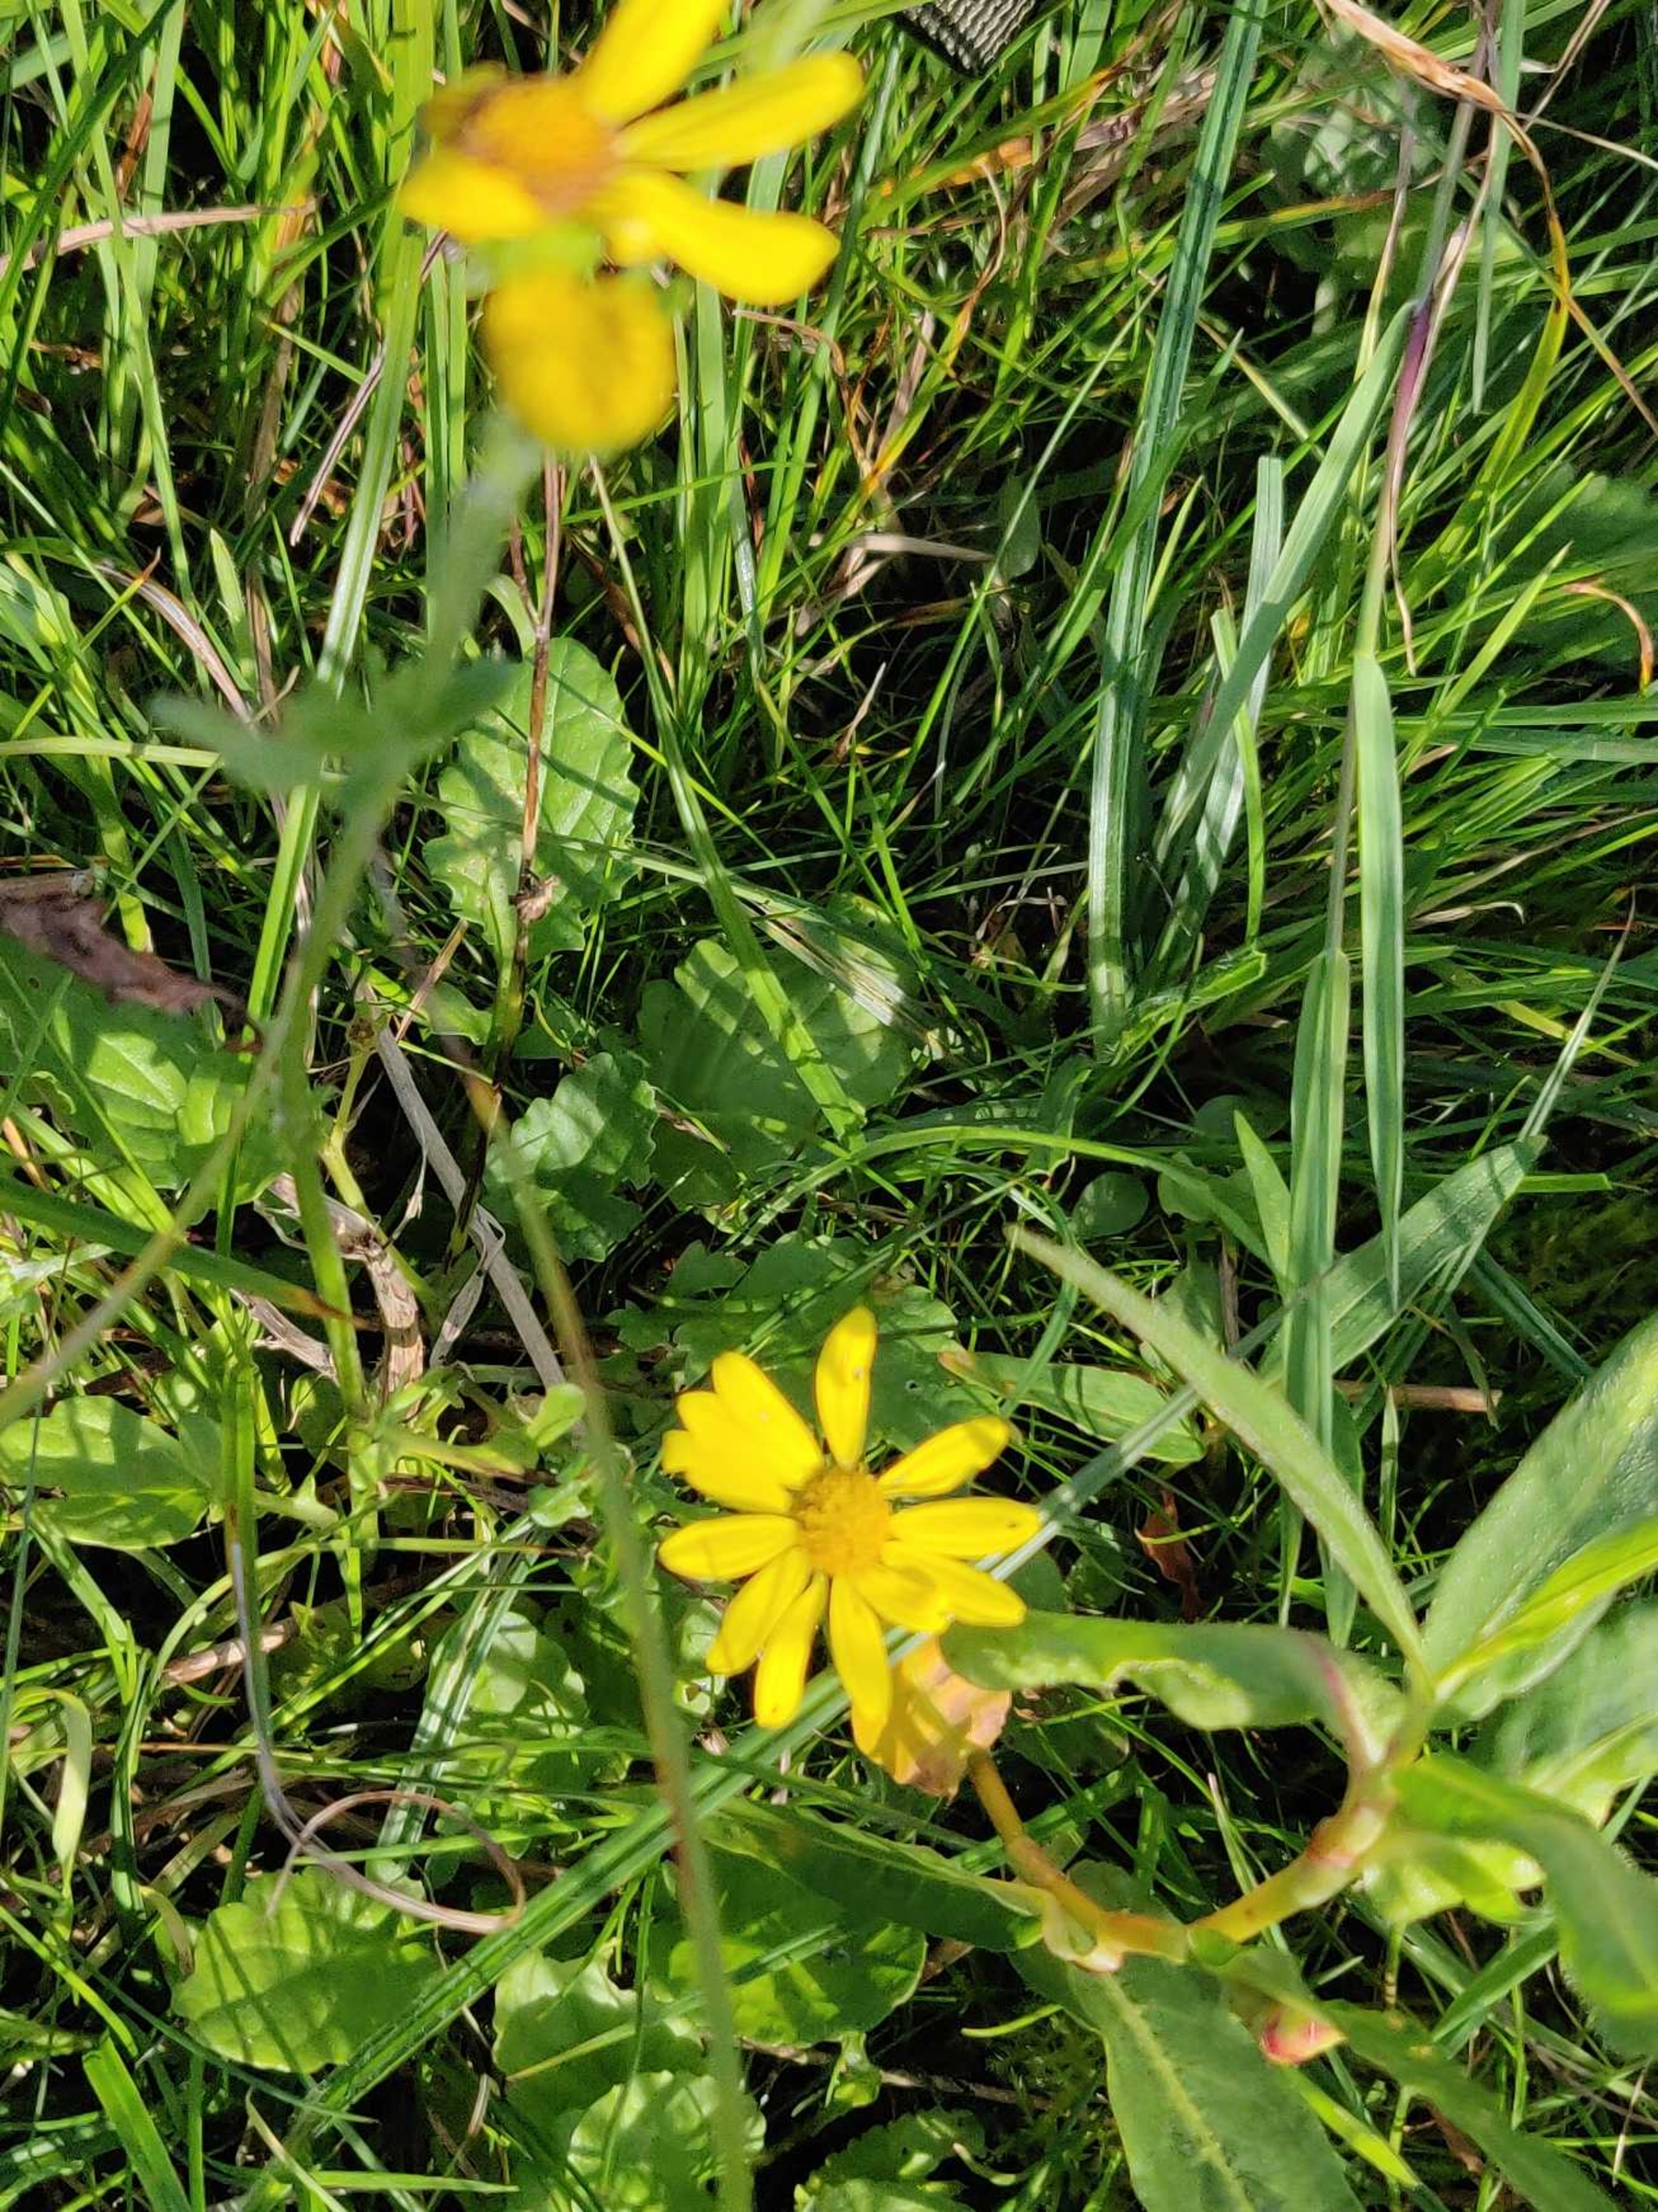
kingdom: Plantae
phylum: Tracheophyta
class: Magnoliopsida
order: Asterales
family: Asteraceae
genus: Jacobaea
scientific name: Jacobaea aquatica
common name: Vand-brandbæger
